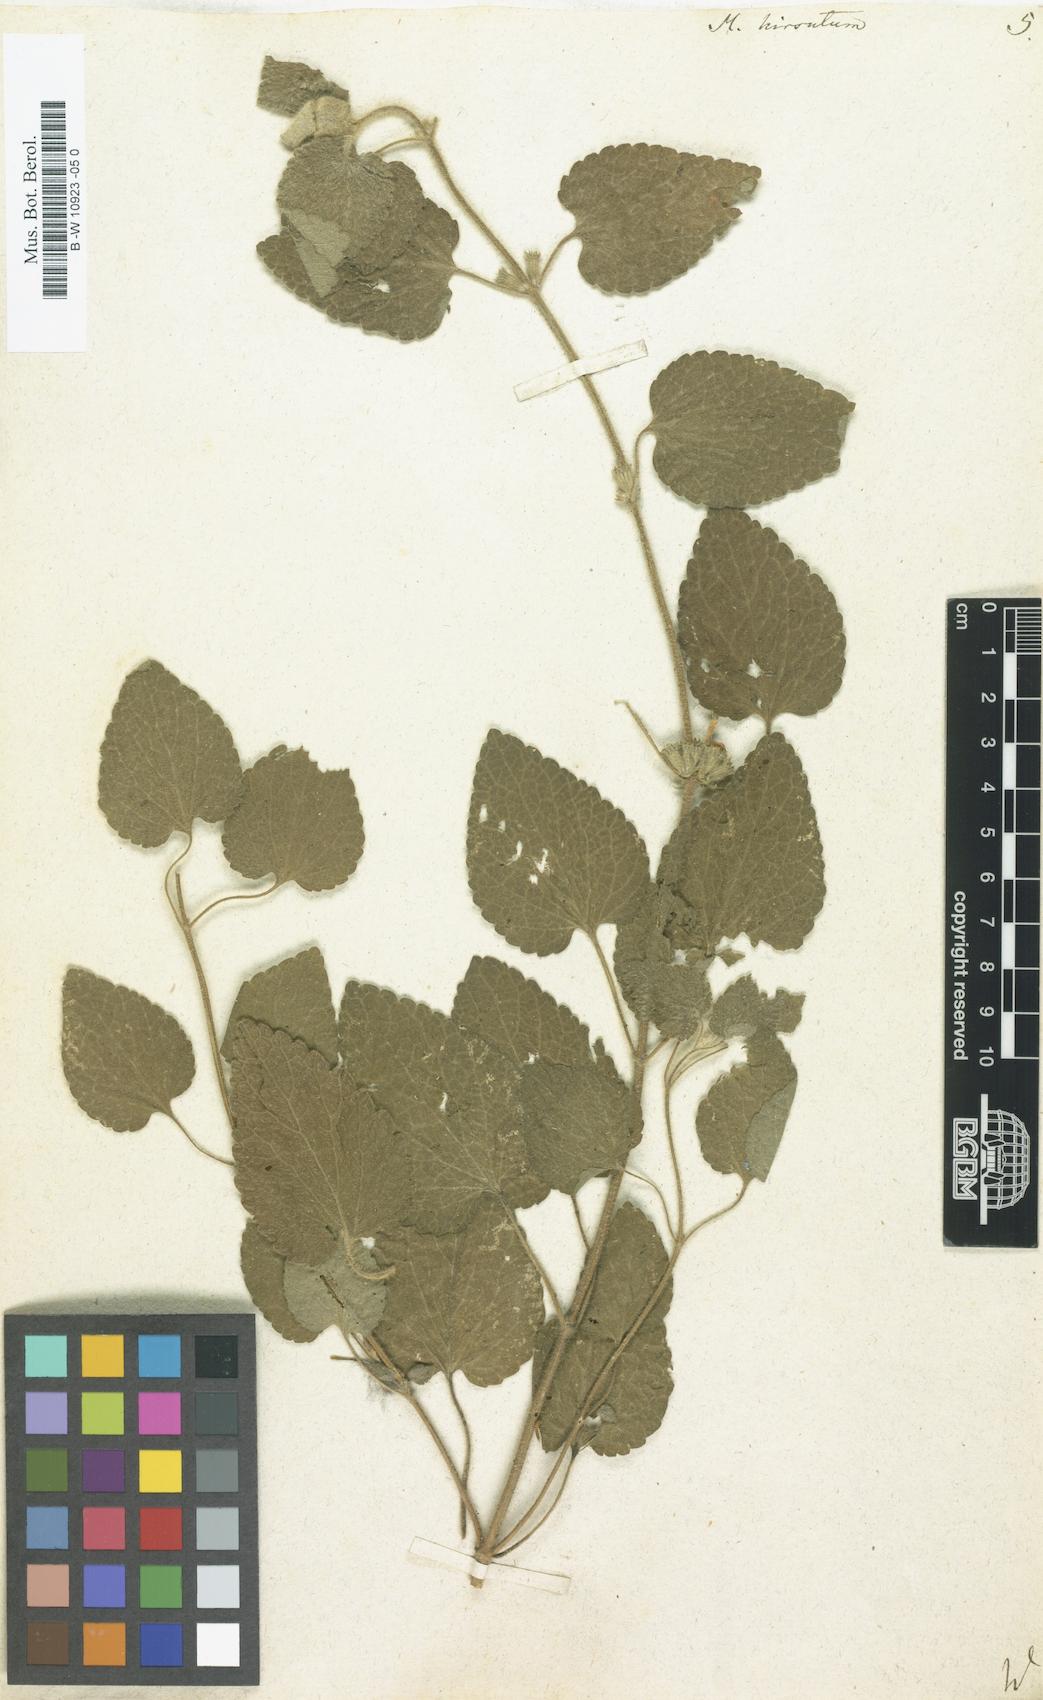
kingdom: Plantae
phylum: Tracheophyta
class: Magnoliopsida
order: Lamiales
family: Lamiaceae
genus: Pseudodictamnus
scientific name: Pseudodictamnus hirsutus
